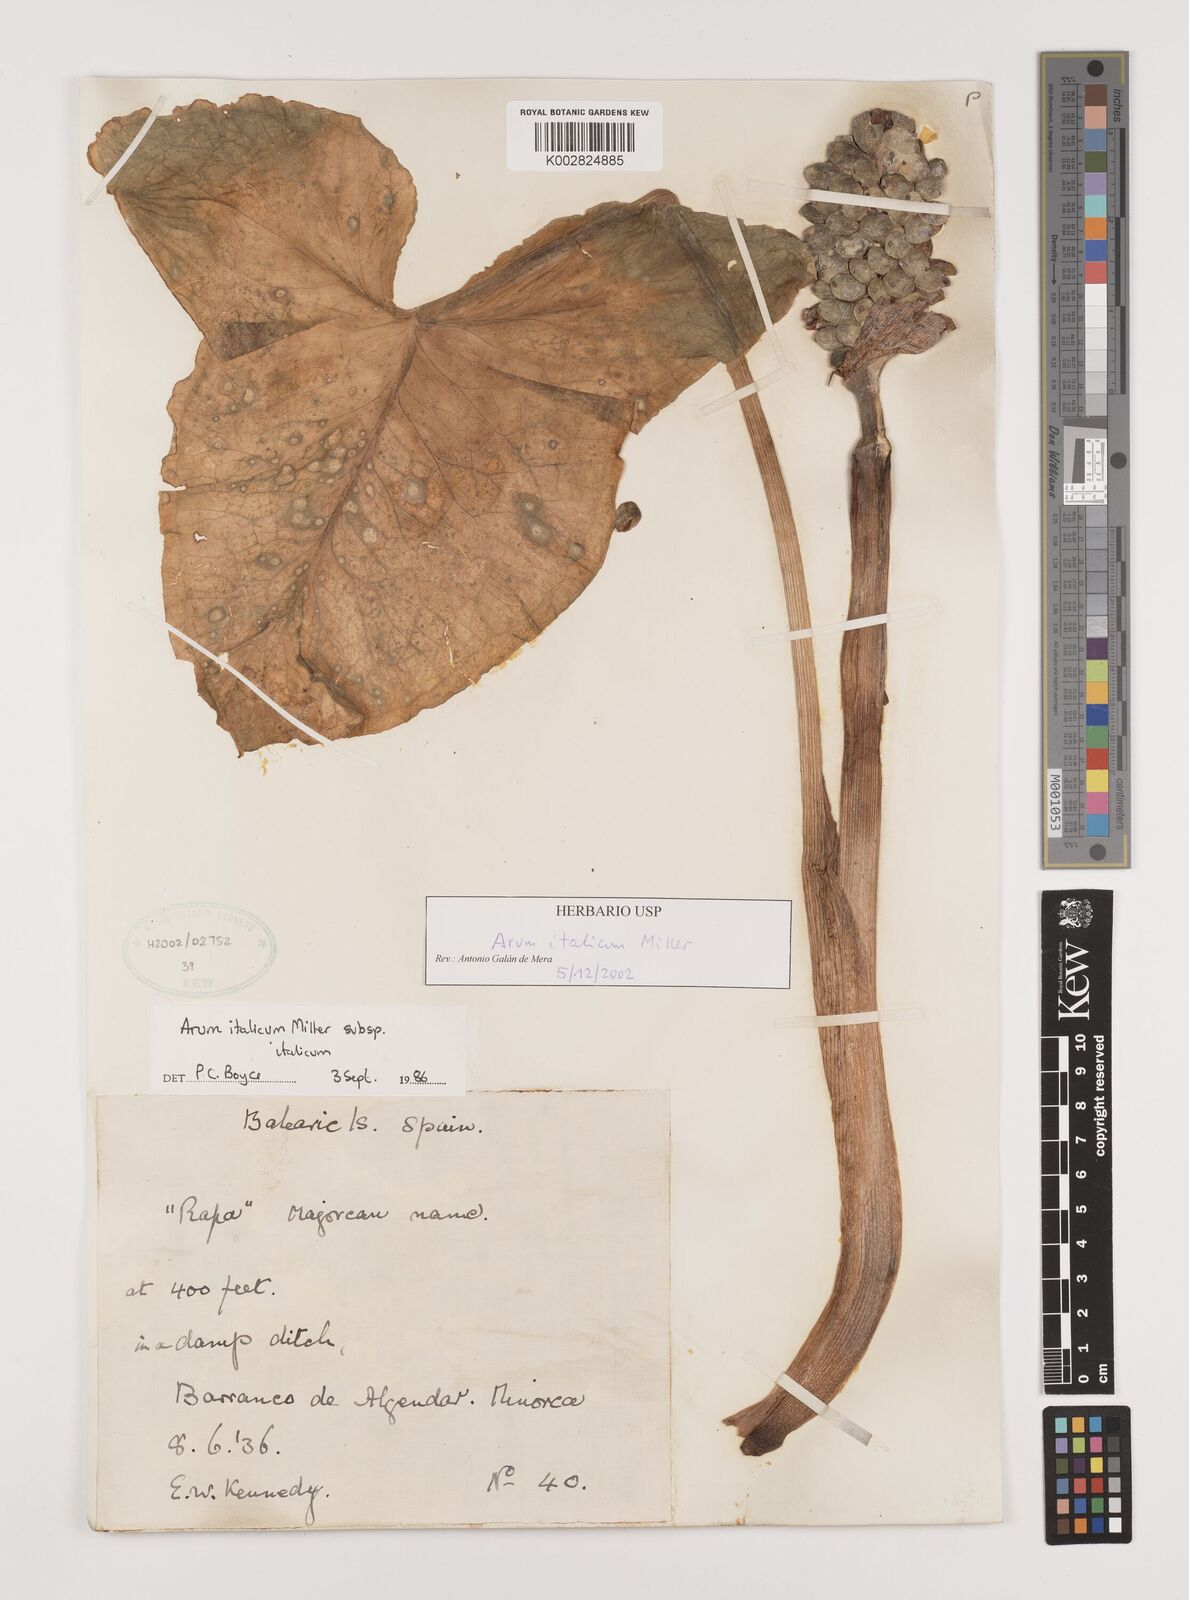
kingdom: Plantae
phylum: Tracheophyta
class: Liliopsida
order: Alismatales
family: Araceae
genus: Arum
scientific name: Arum italicum
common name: Italian lords-and-ladies
